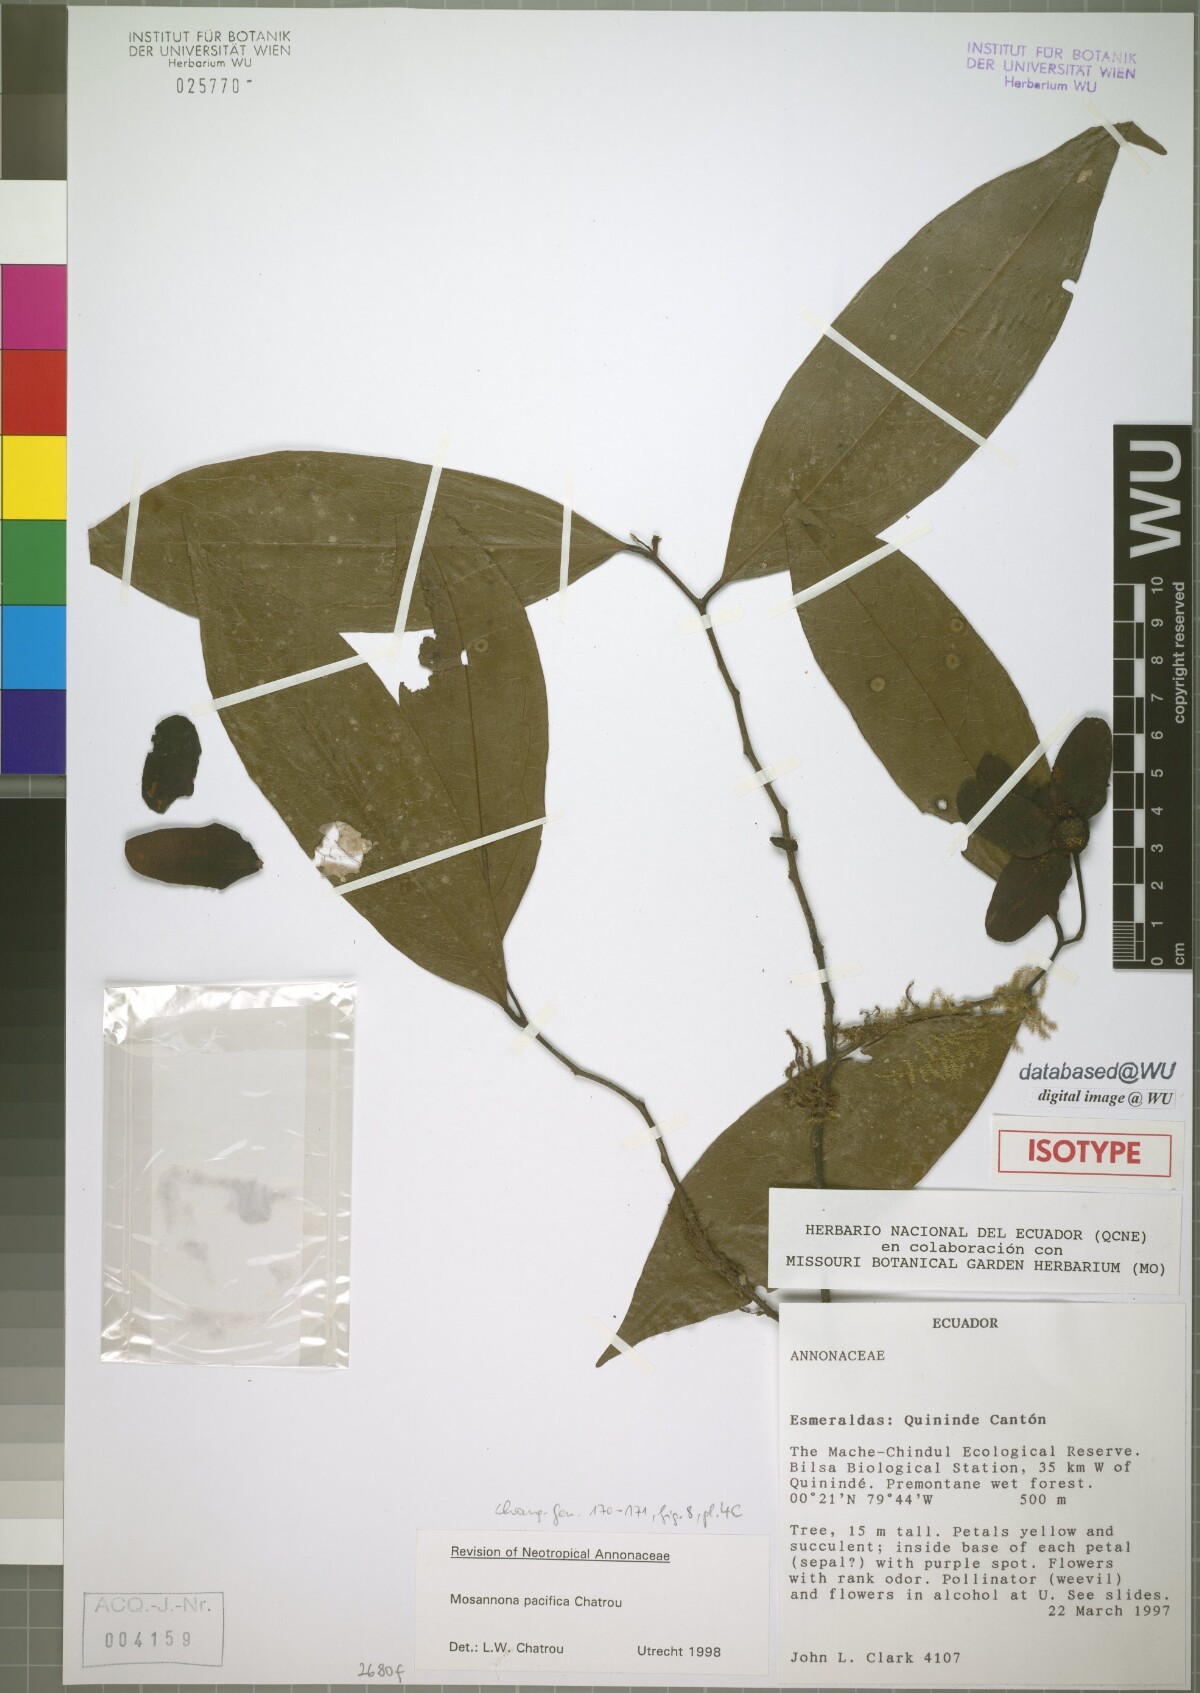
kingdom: Plantae
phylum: Tracheophyta
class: Magnoliopsida
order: Magnoliales
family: Annonaceae
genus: Mosannona
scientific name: Mosannona pacifica
